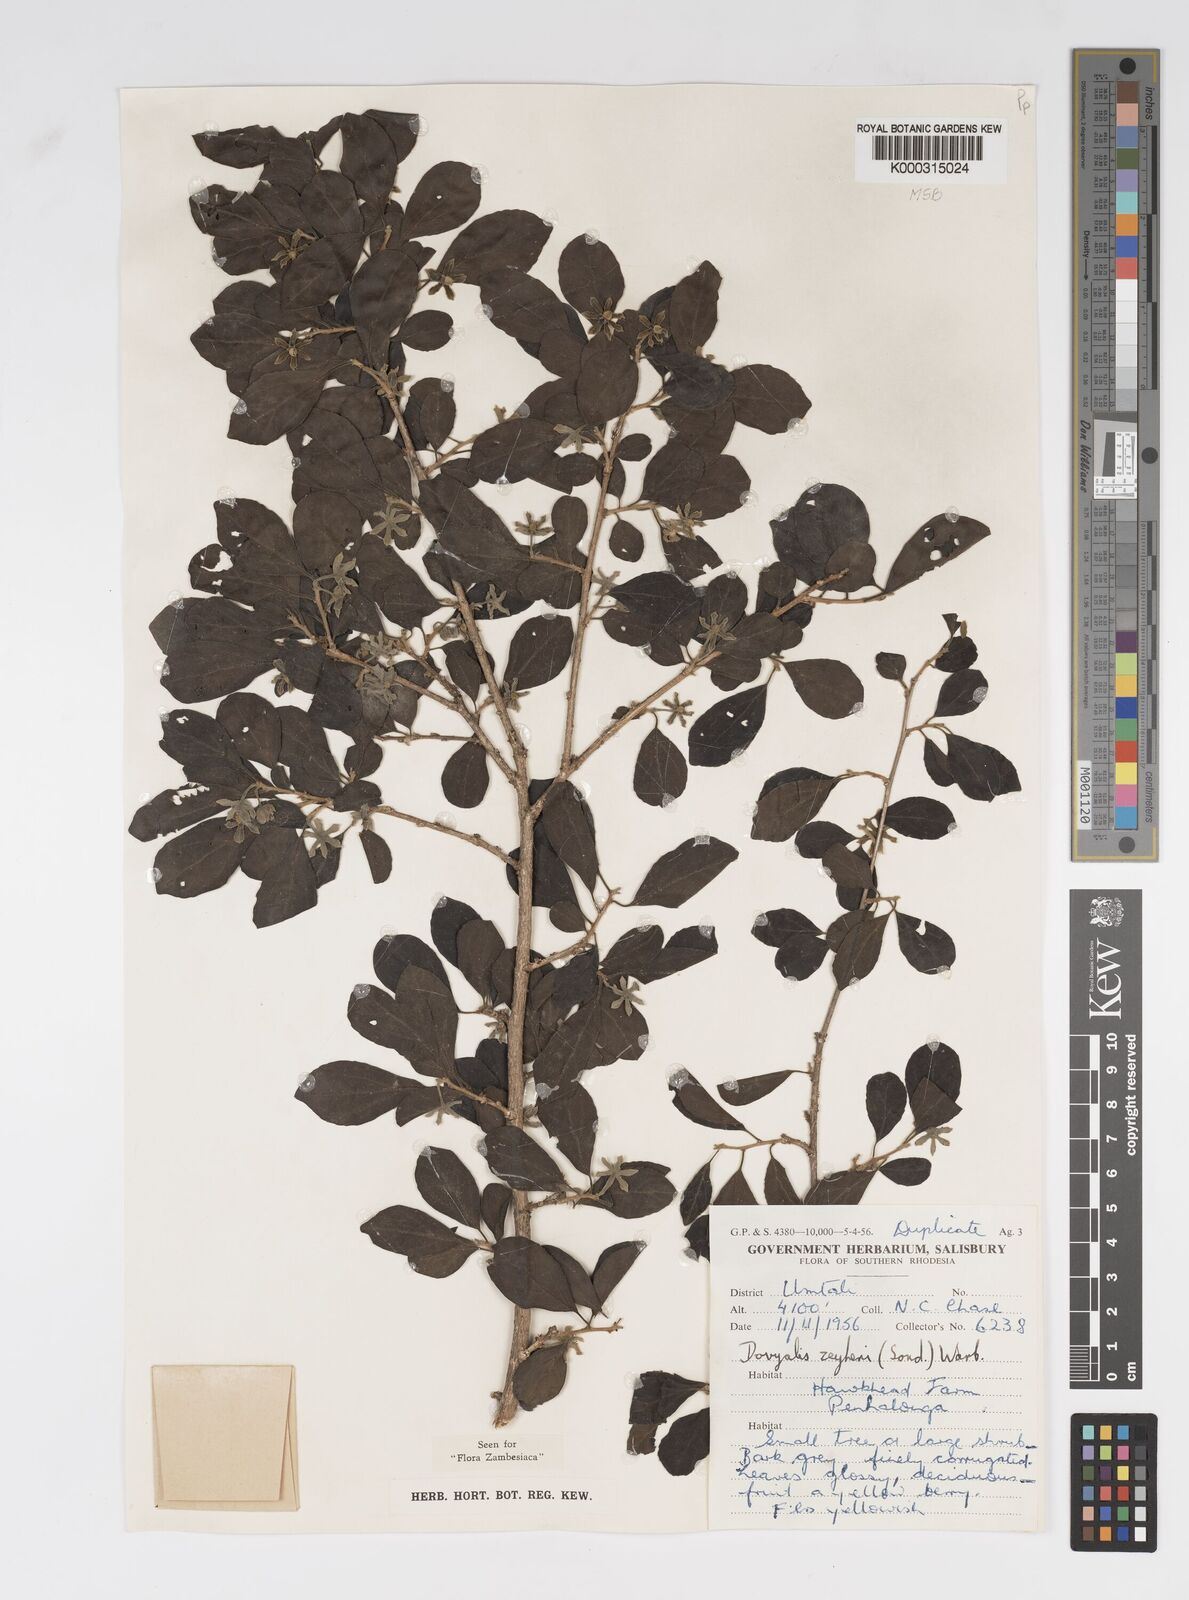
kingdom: Plantae
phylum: Tracheophyta
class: Magnoliopsida
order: Malpighiales
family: Salicaceae
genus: Dovyalis
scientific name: Dovyalis zeyheri
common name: Apricot sourberry
